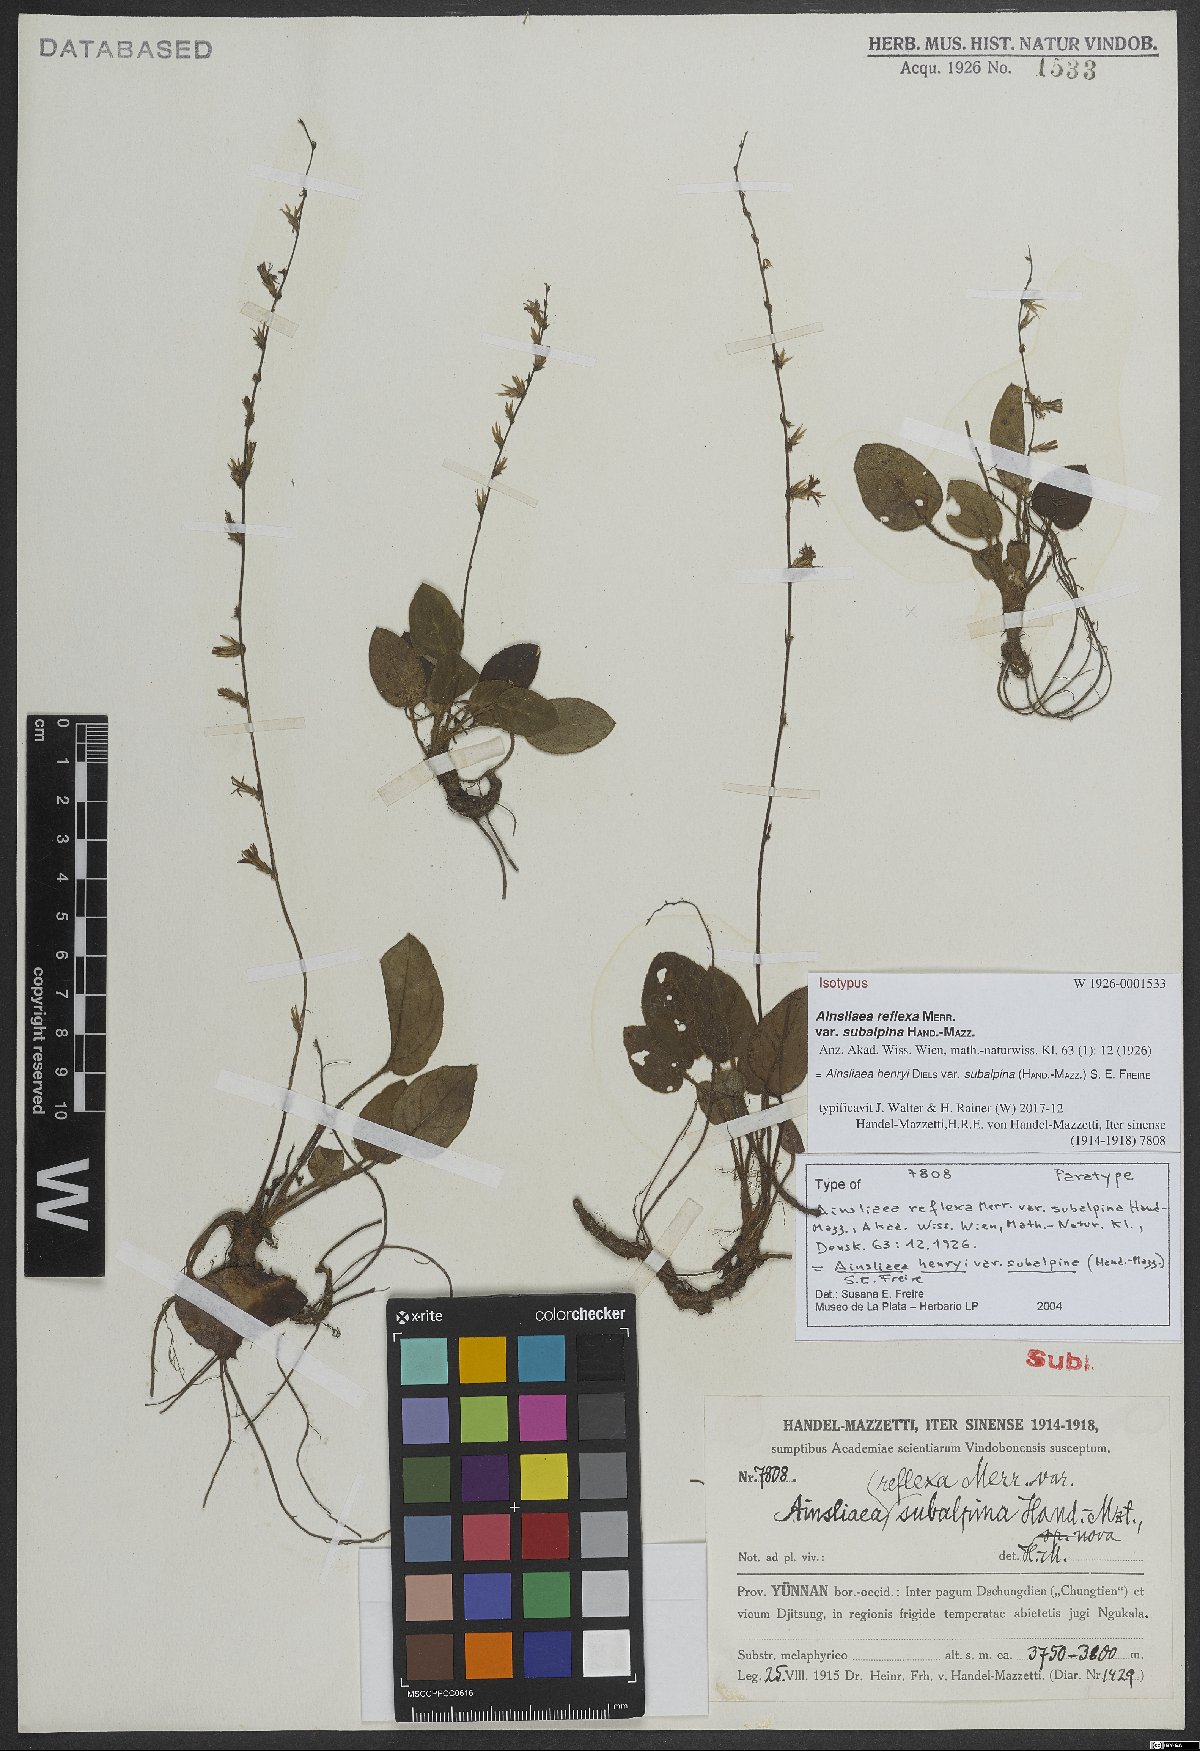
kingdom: Plantae
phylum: Tracheophyta
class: Magnoliopsida
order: Asterales
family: Asteraceae
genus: Ainsliaea
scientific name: Ainsliaea henryi
